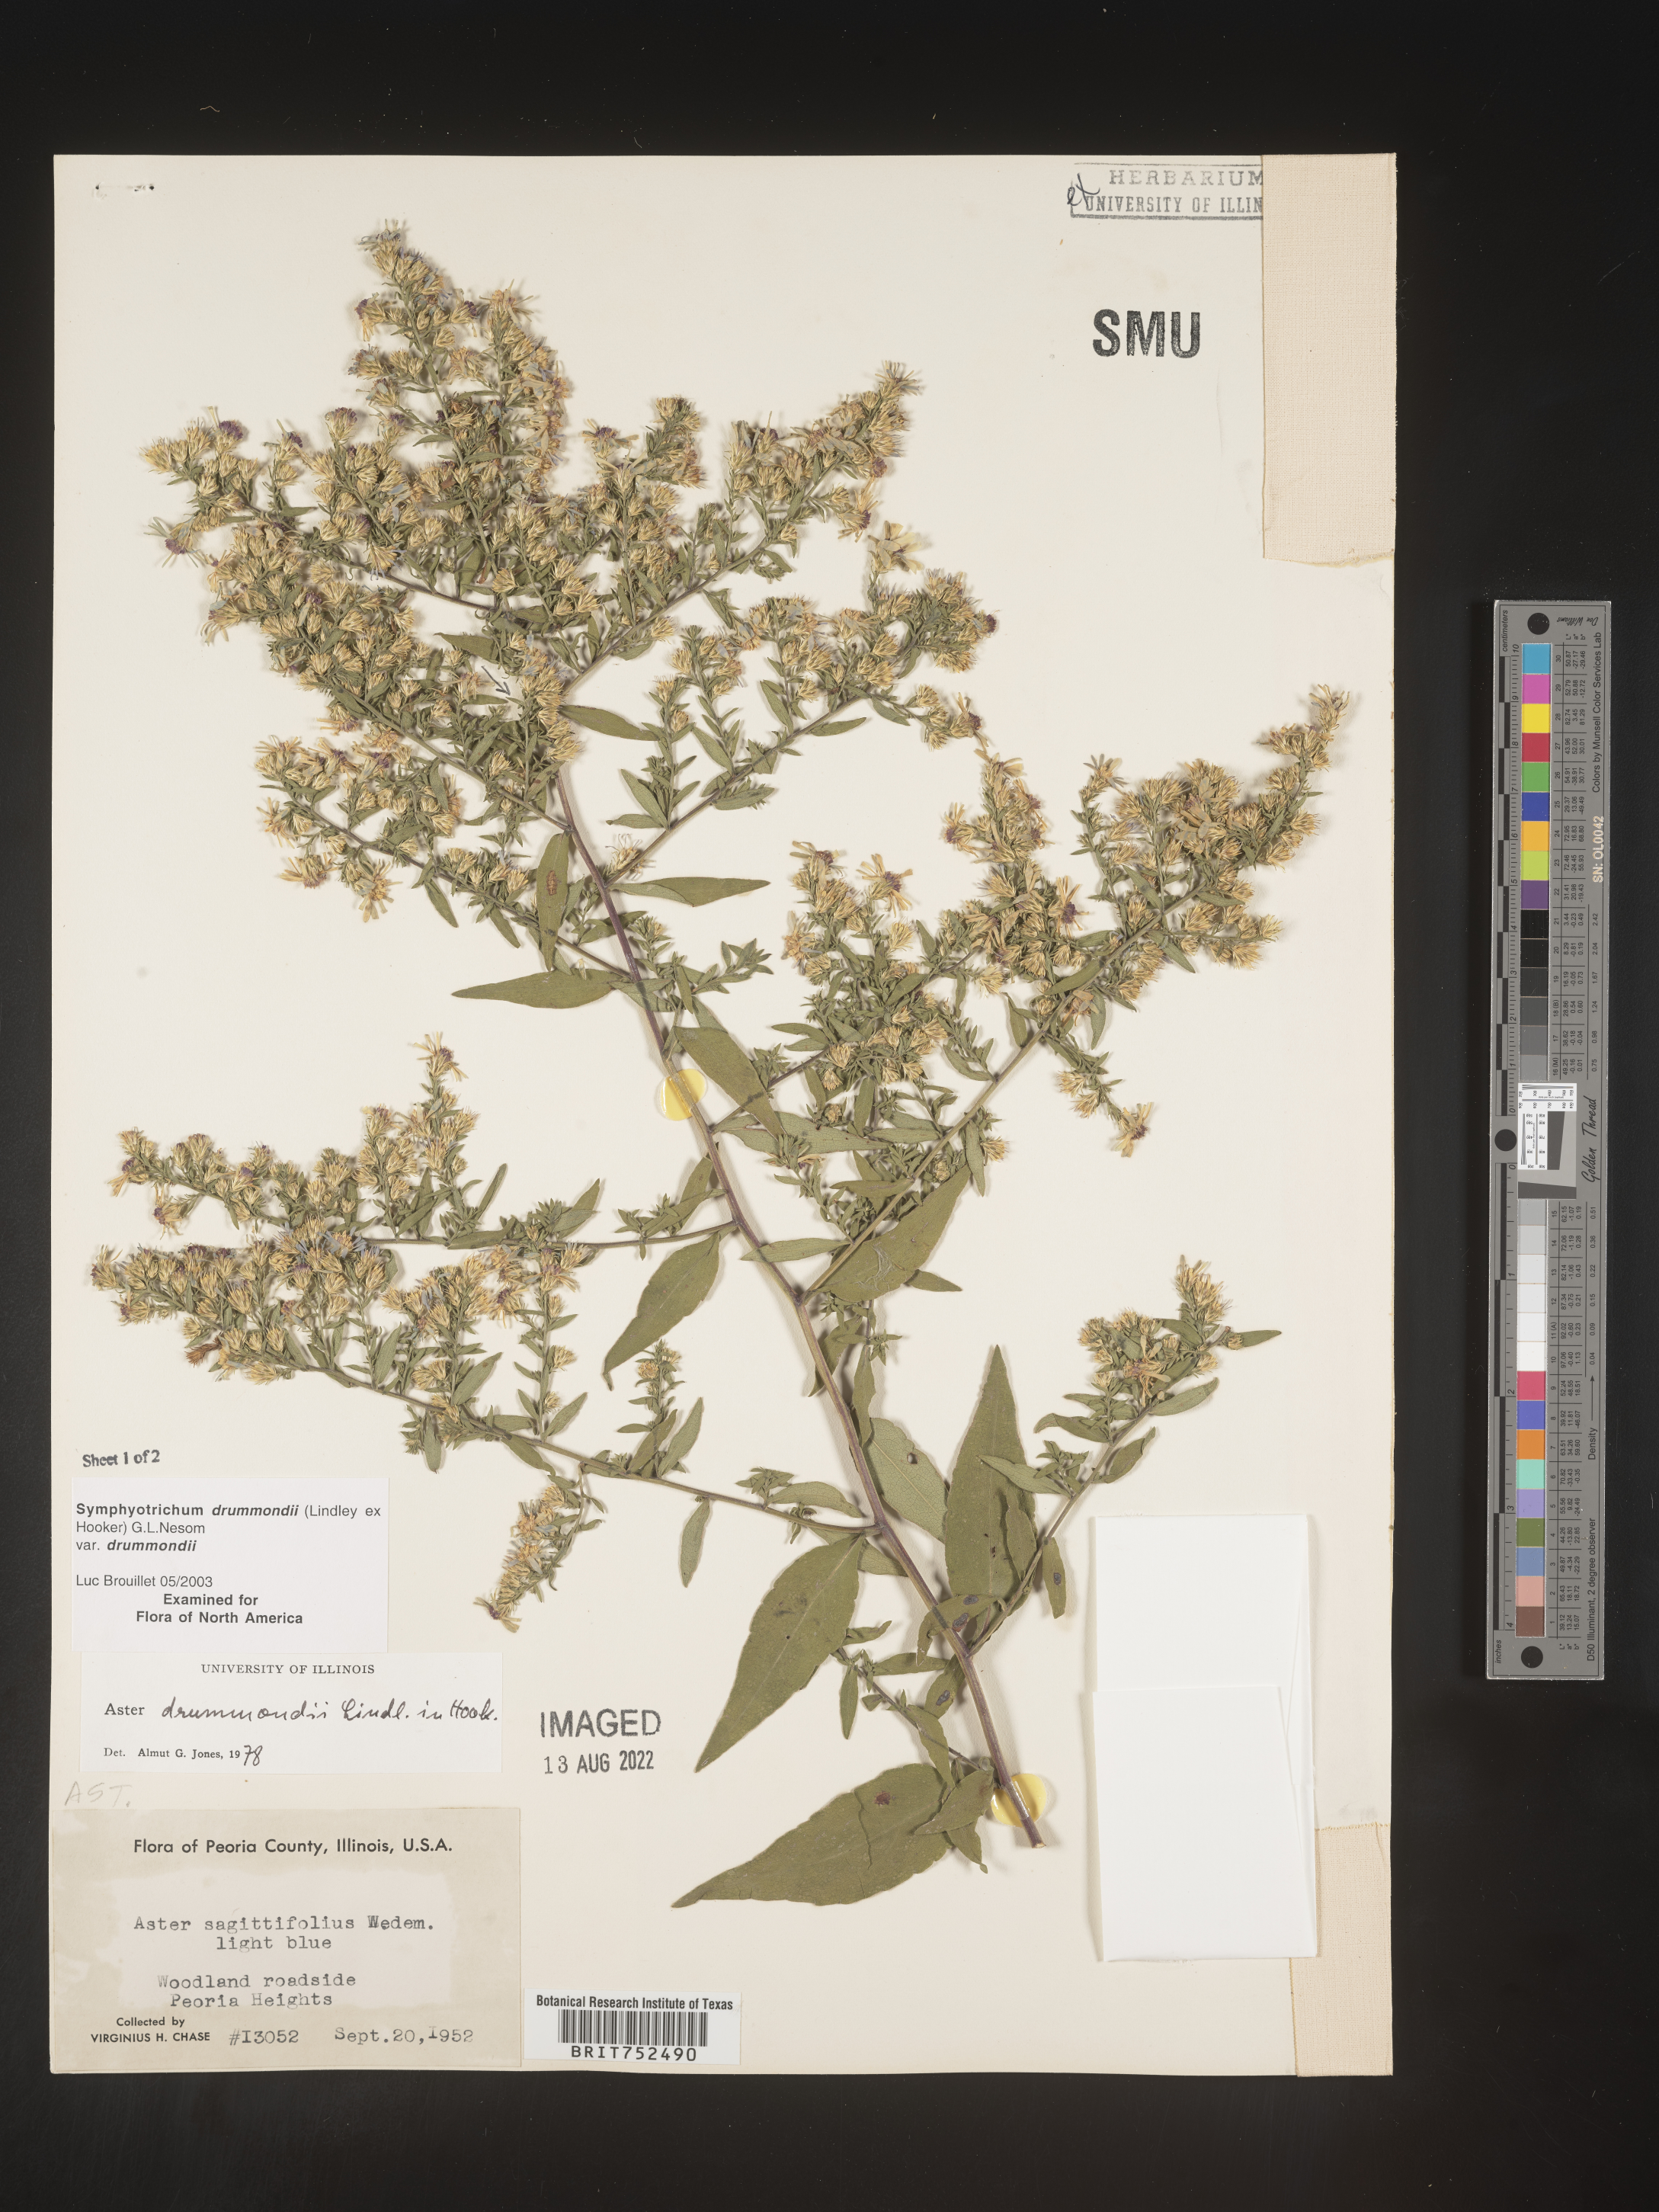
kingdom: Plantae
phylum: Tracheophyta
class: Magnoliopsida
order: Asterales
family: Asteraceae
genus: Symphyotrichum
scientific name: Symphyotrichum drummondii
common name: Drummond's aster
